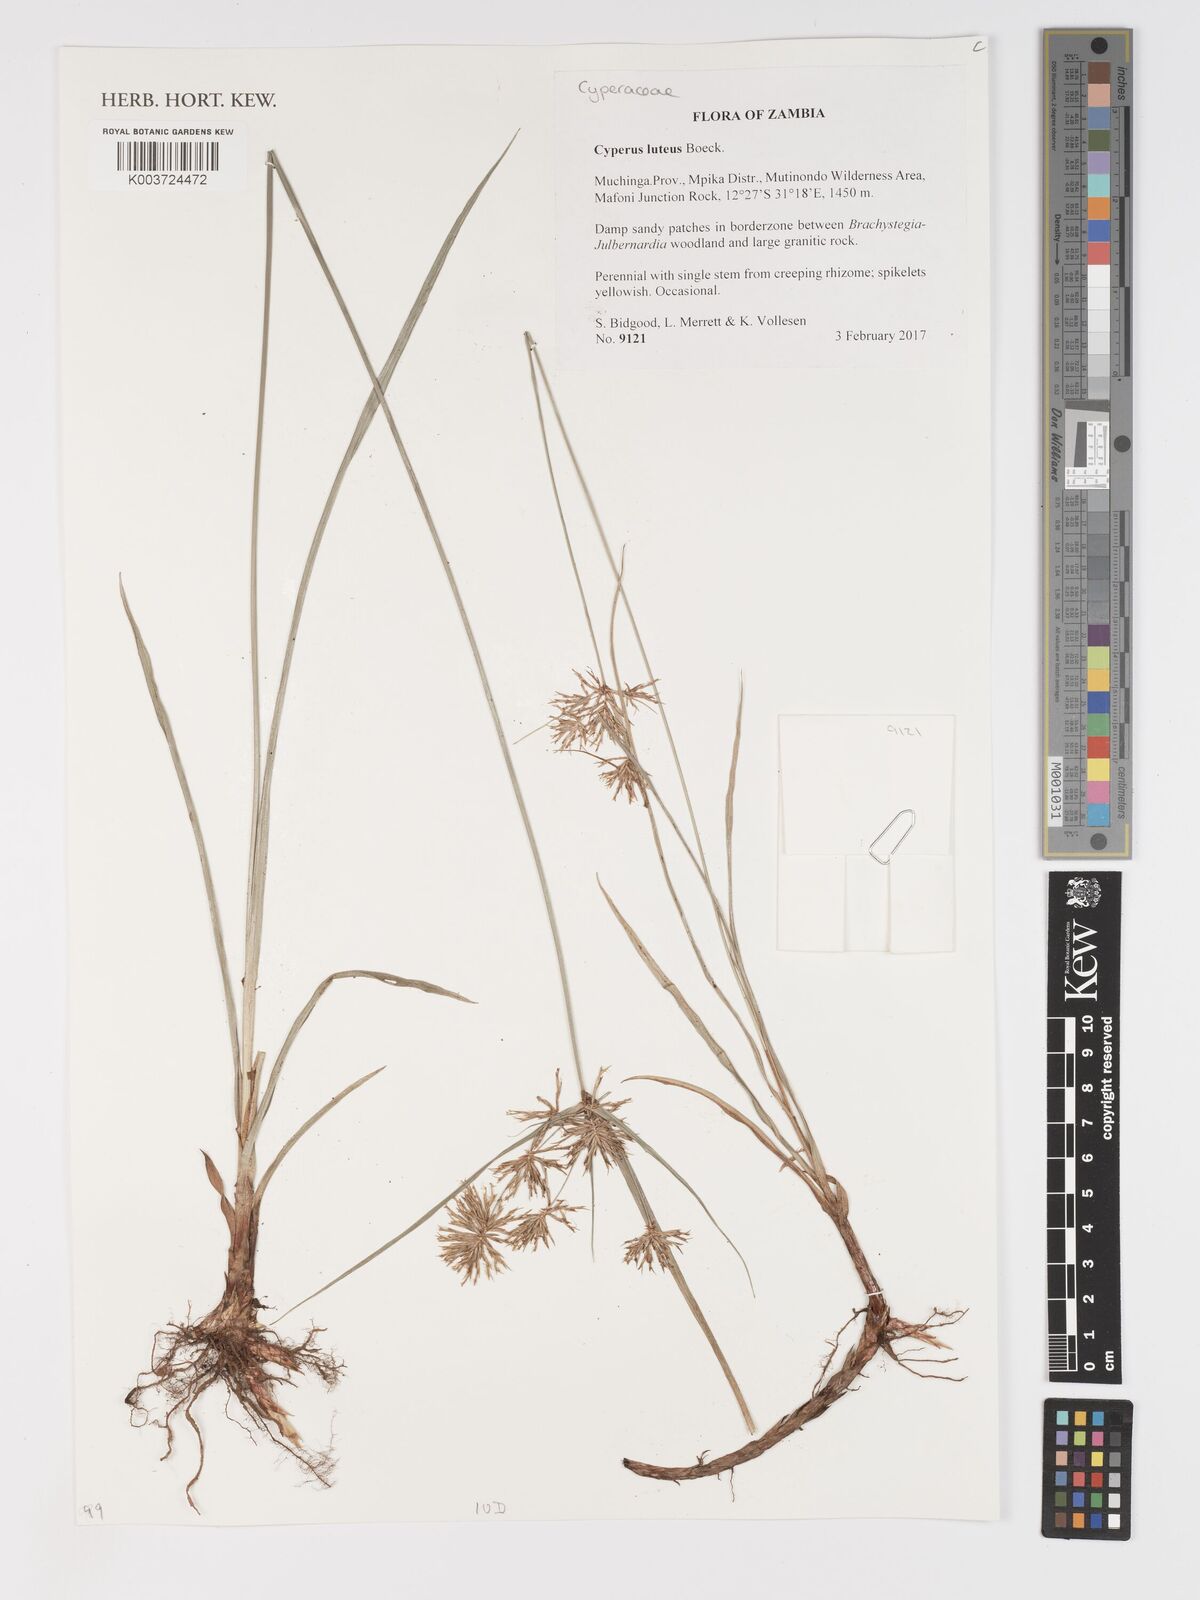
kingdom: Plantae
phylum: Tracheophyta
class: Liliopsida
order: Poales
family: Cyperaceae
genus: Cyperus
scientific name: Cyperus luteus
